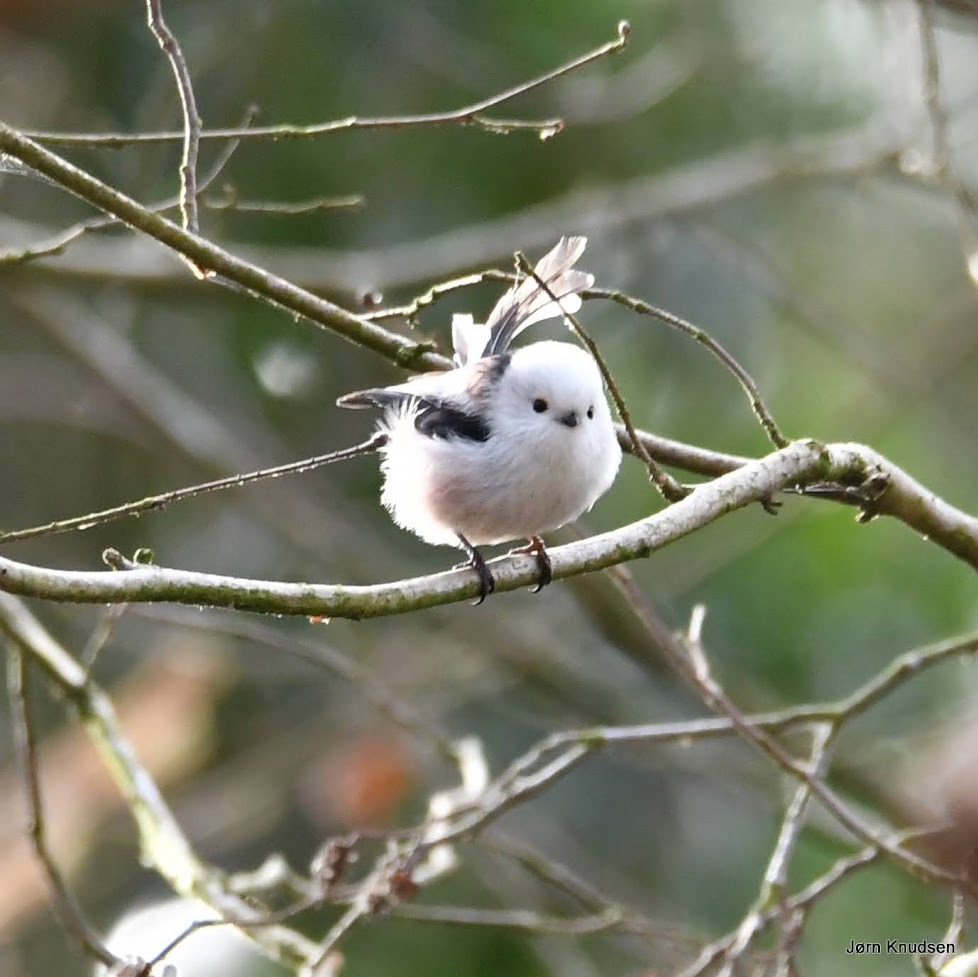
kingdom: Animalia
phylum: Chordata
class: Aves
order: Passeriformes
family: Aegithalidae
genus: Aegithalos
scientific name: Aegithalos caudatus
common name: Halemejse
